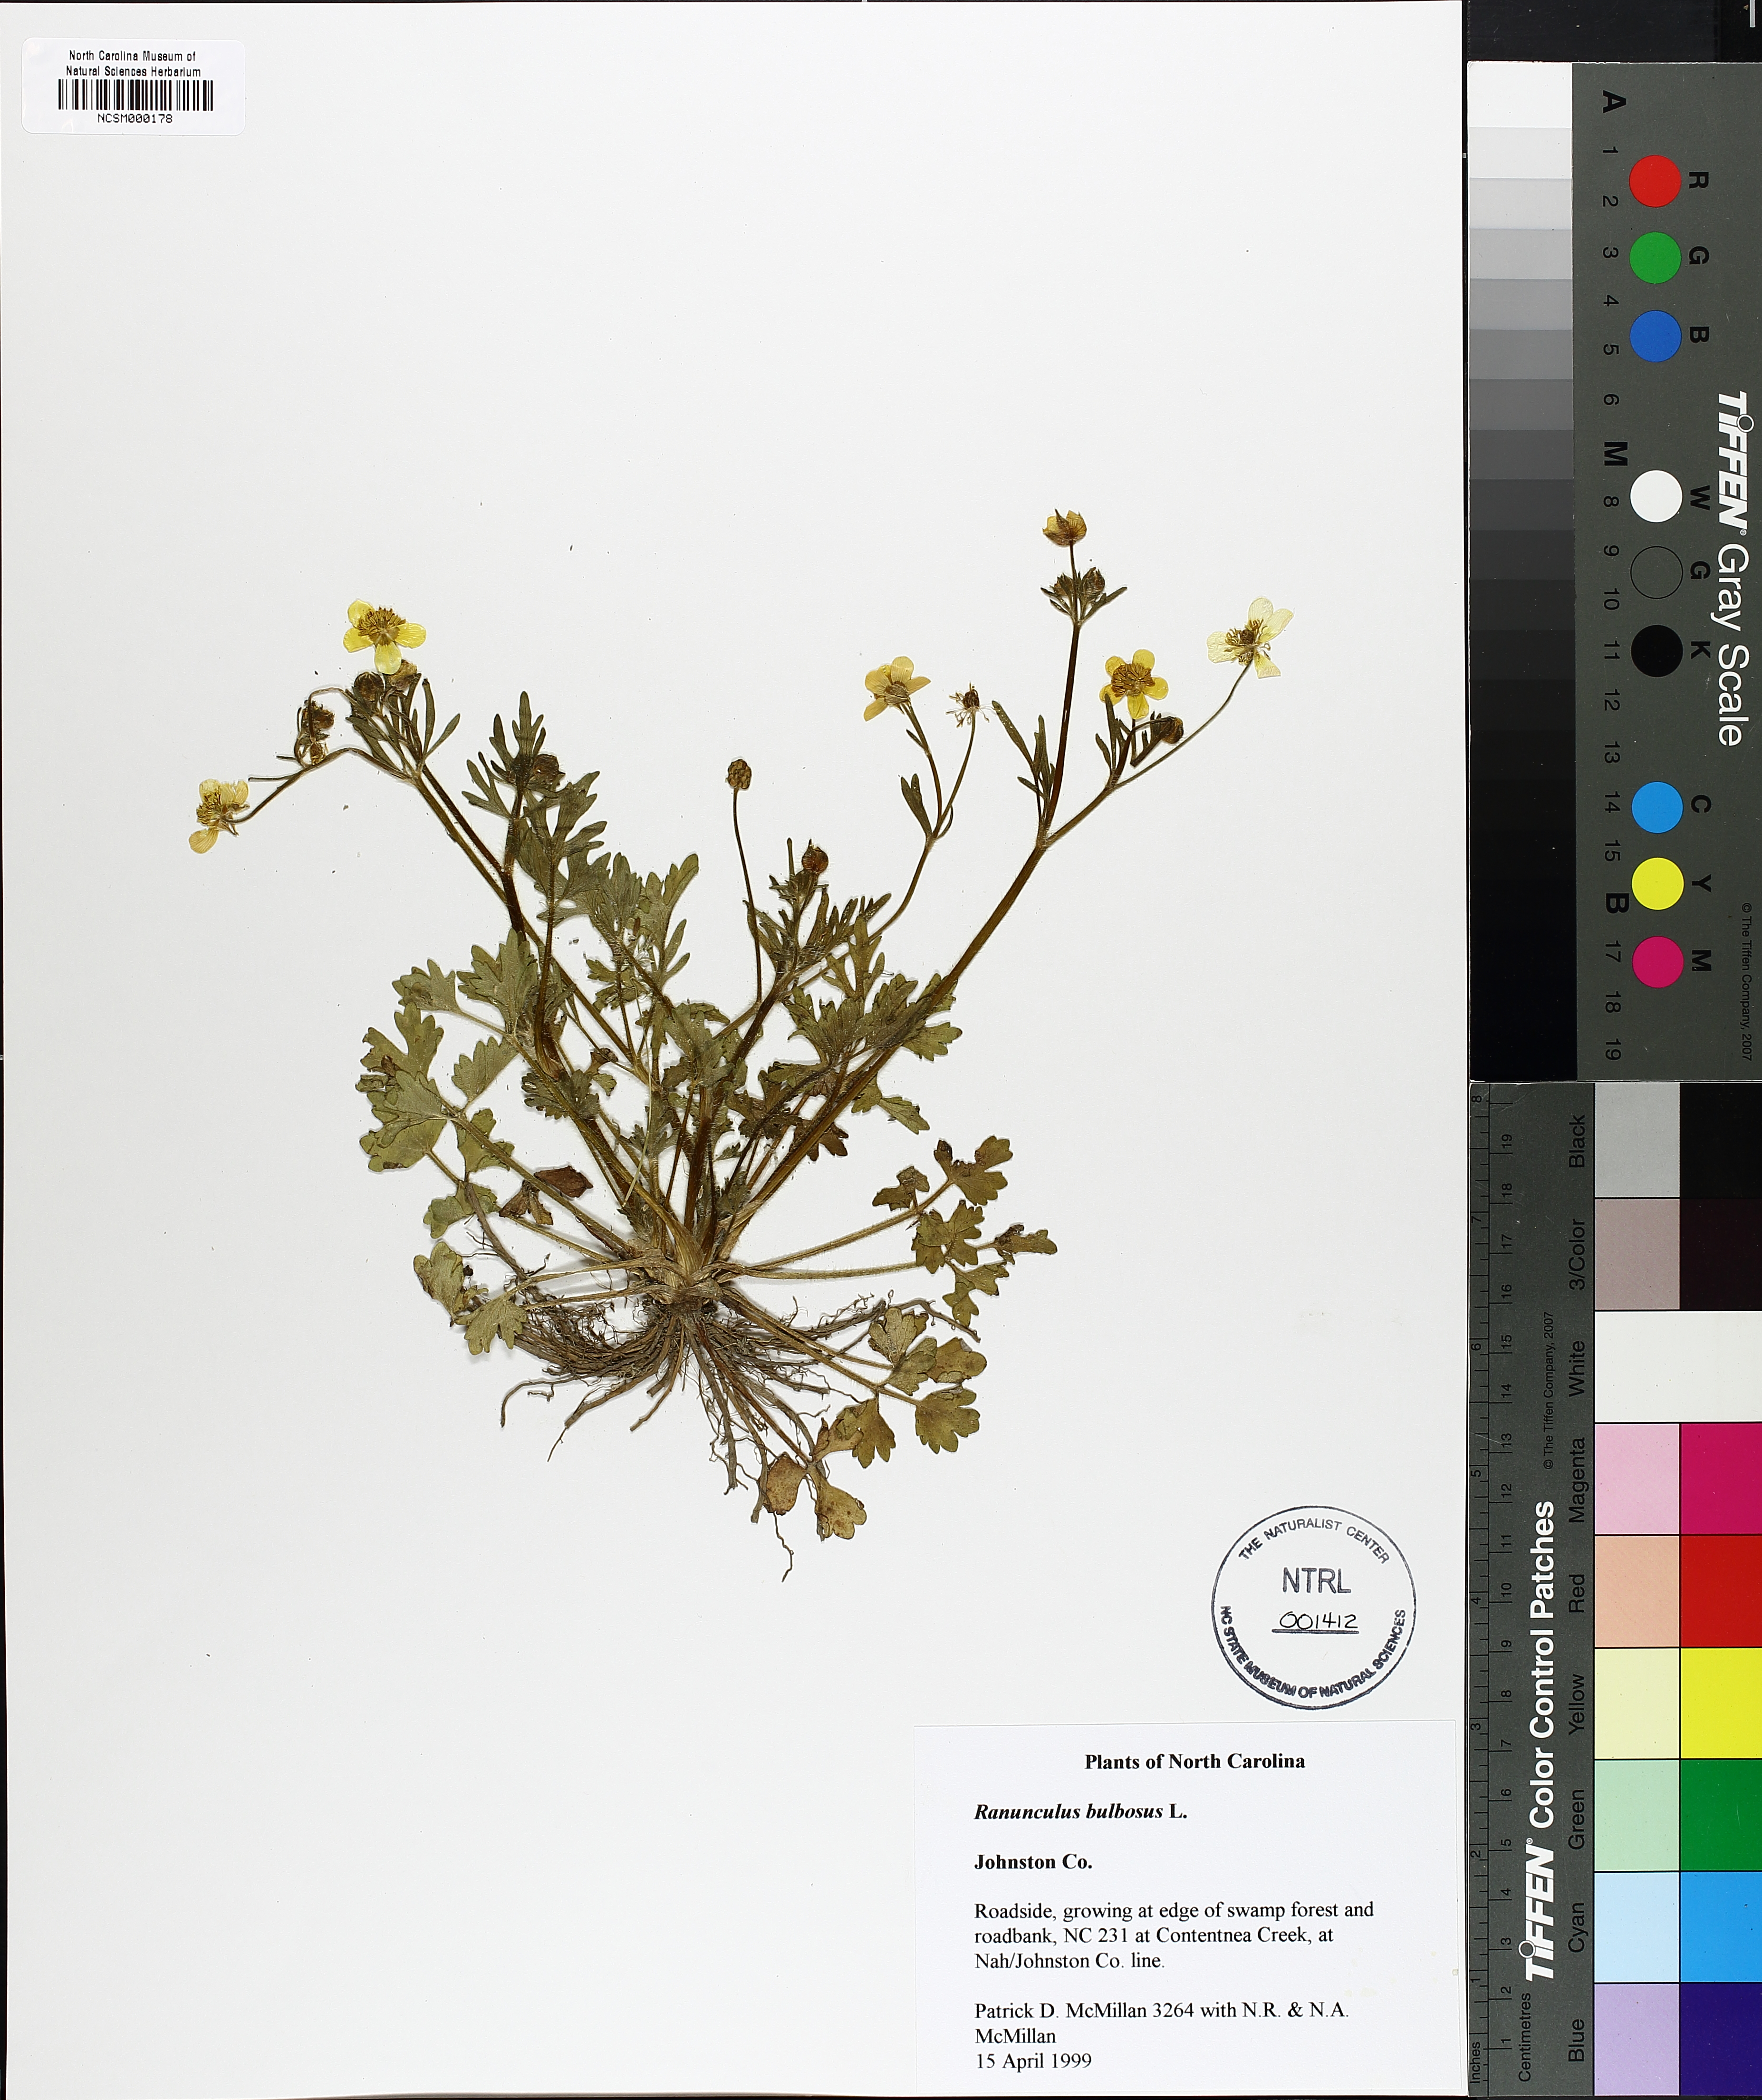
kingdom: Plantae
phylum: Tracheophyta
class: Magnoliopsida
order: Ranunculales
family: Ranunculaceae
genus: Ranunculus
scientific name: Ranunculus bulbosus
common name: Bulbous buttercup
